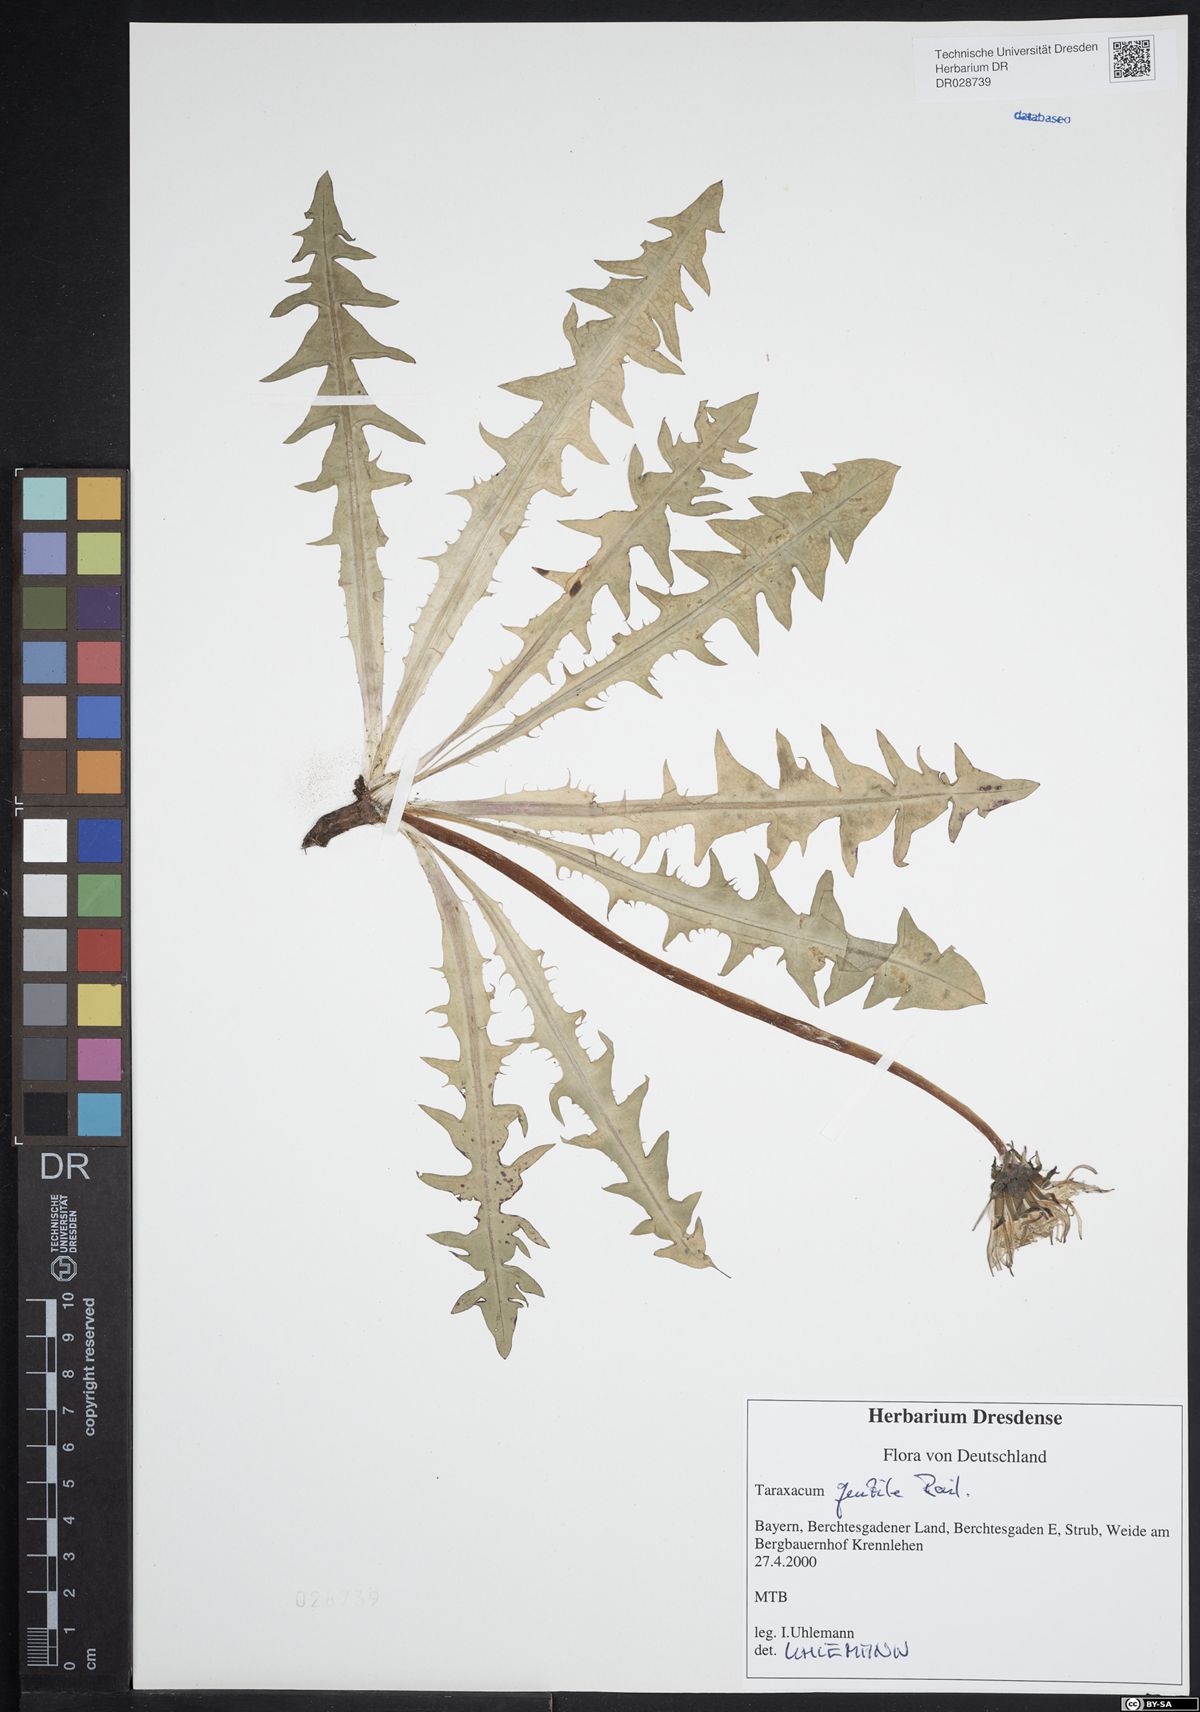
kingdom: Plantae
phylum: Tracheophyta
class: Magnoliopsida
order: Asterales
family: Asteraceae
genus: Taraxacum
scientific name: Taraxacum gentile
